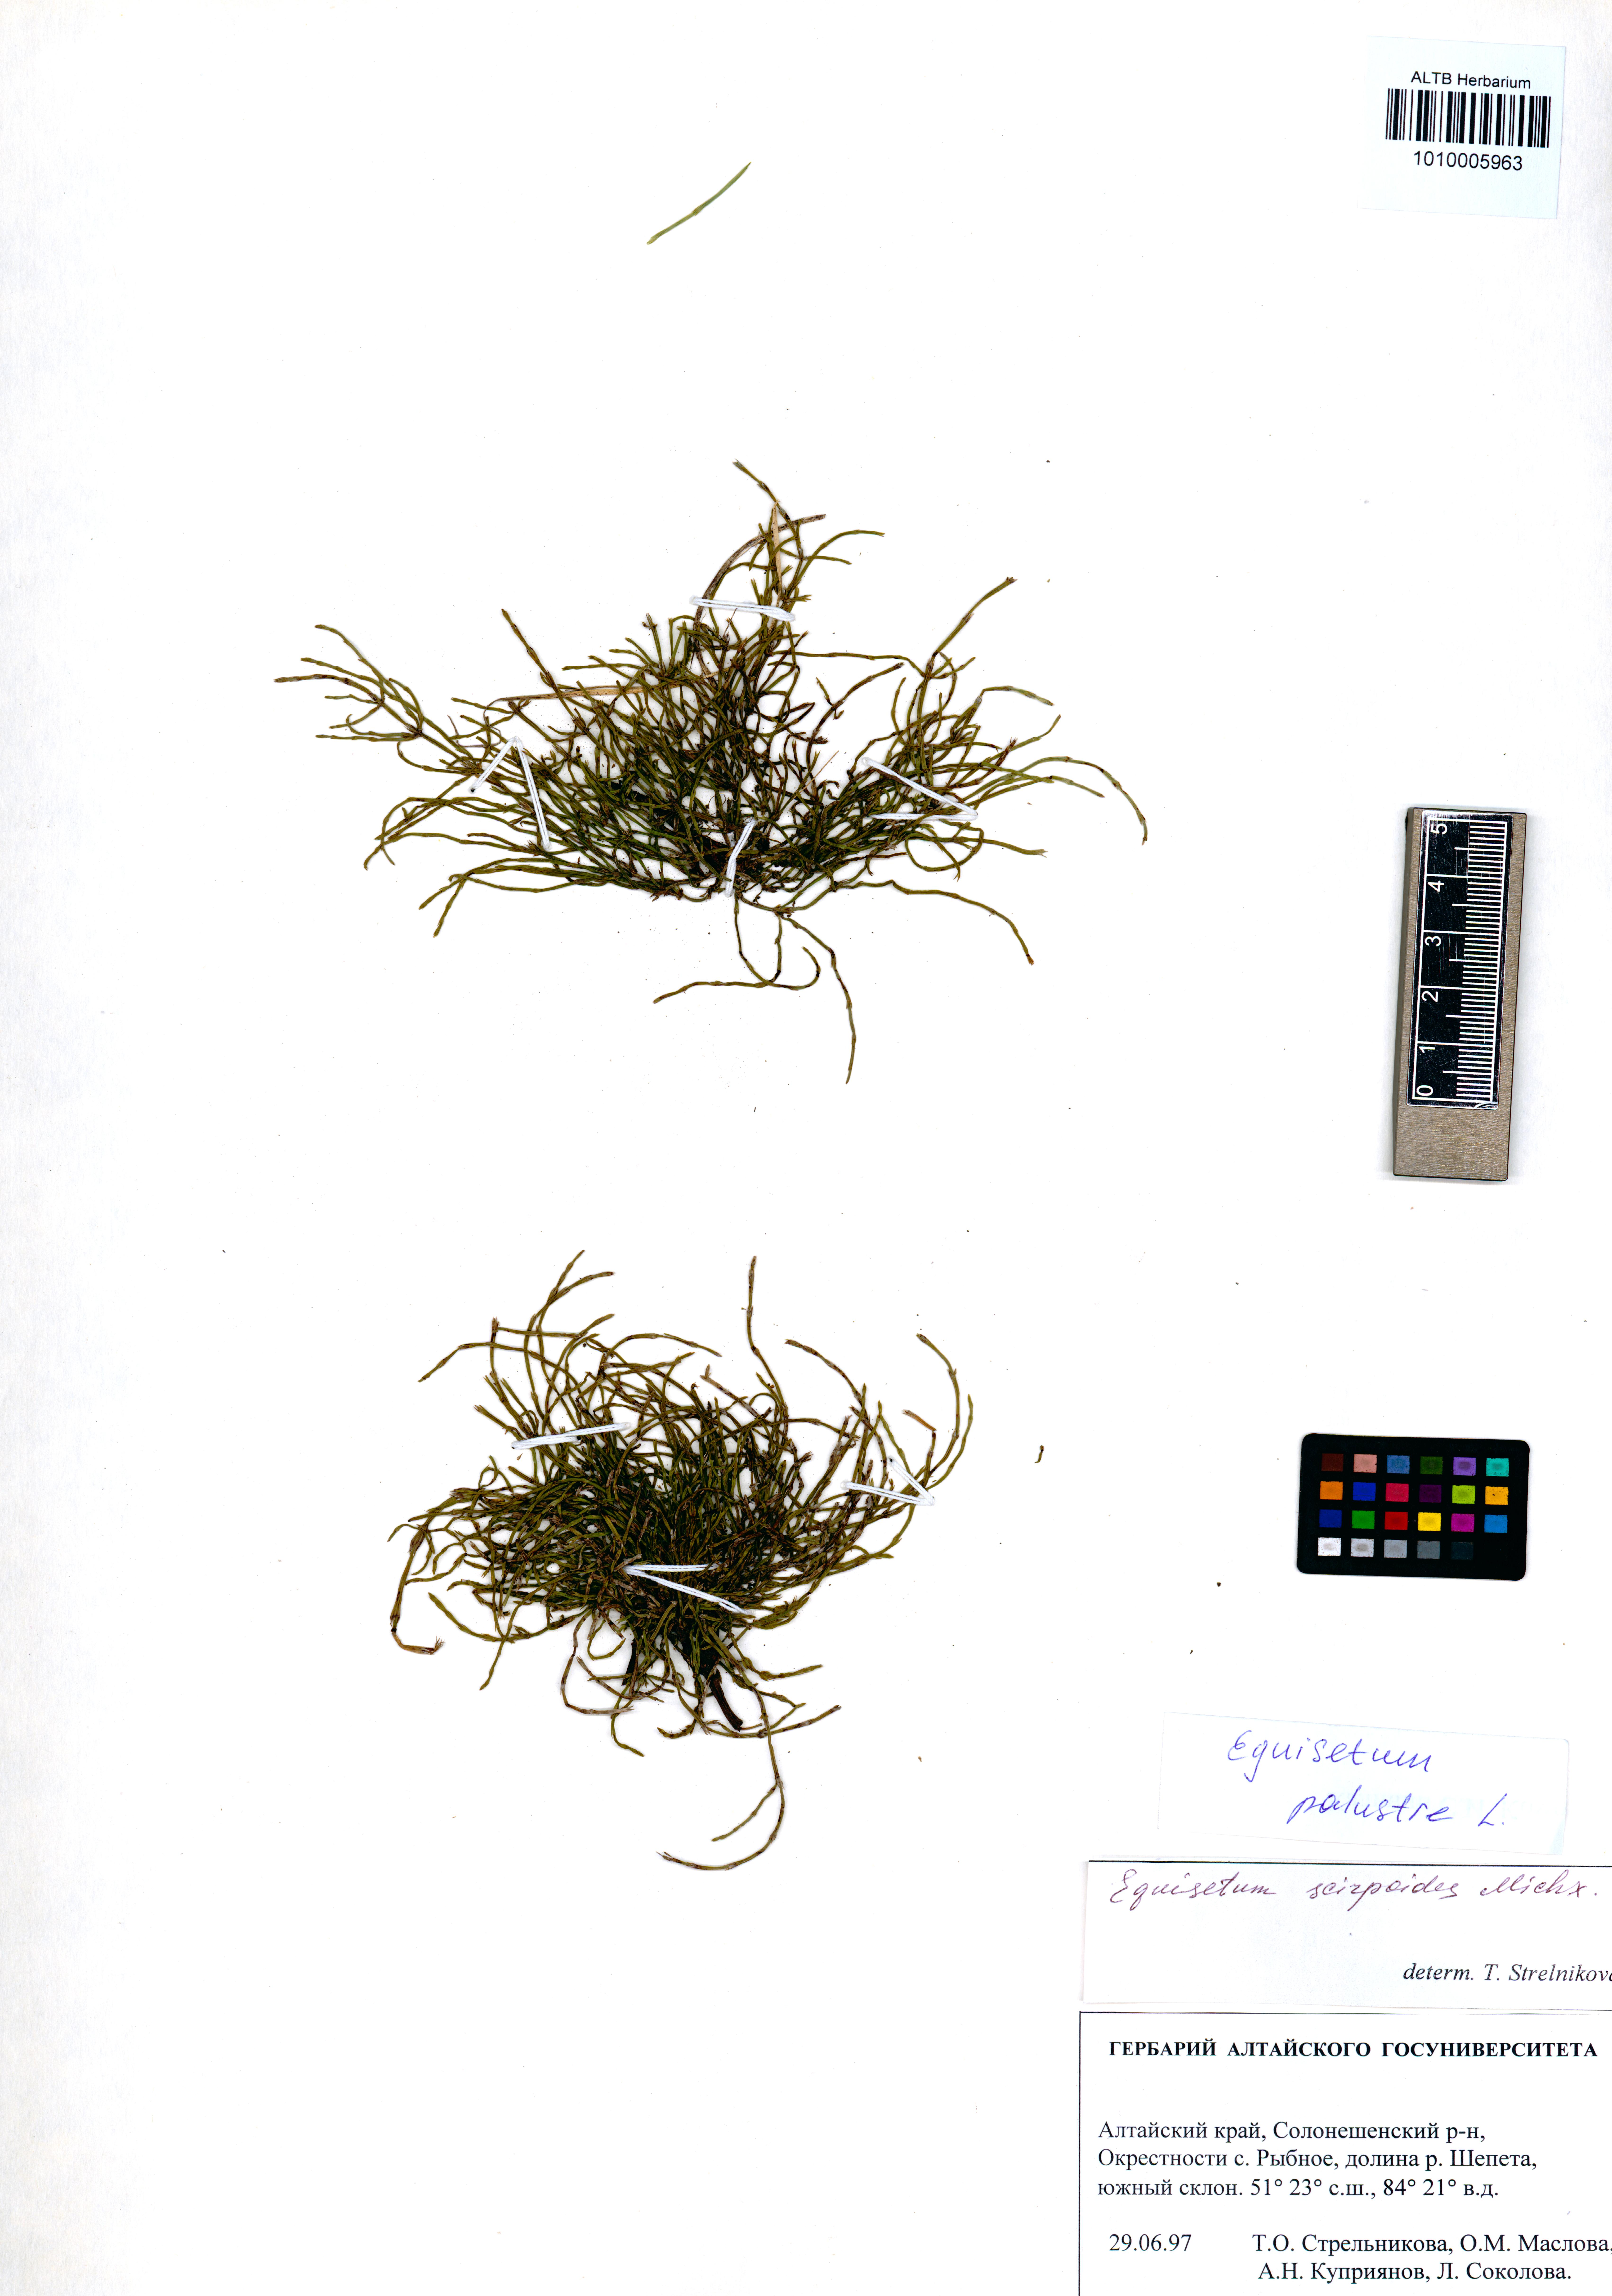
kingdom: Plantae
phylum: Tracheophyta
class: Polypodiopsida
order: Equisetales
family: Equisetaceae
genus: Equisetum
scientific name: Equisetum palustre
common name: Marsh horsetail
